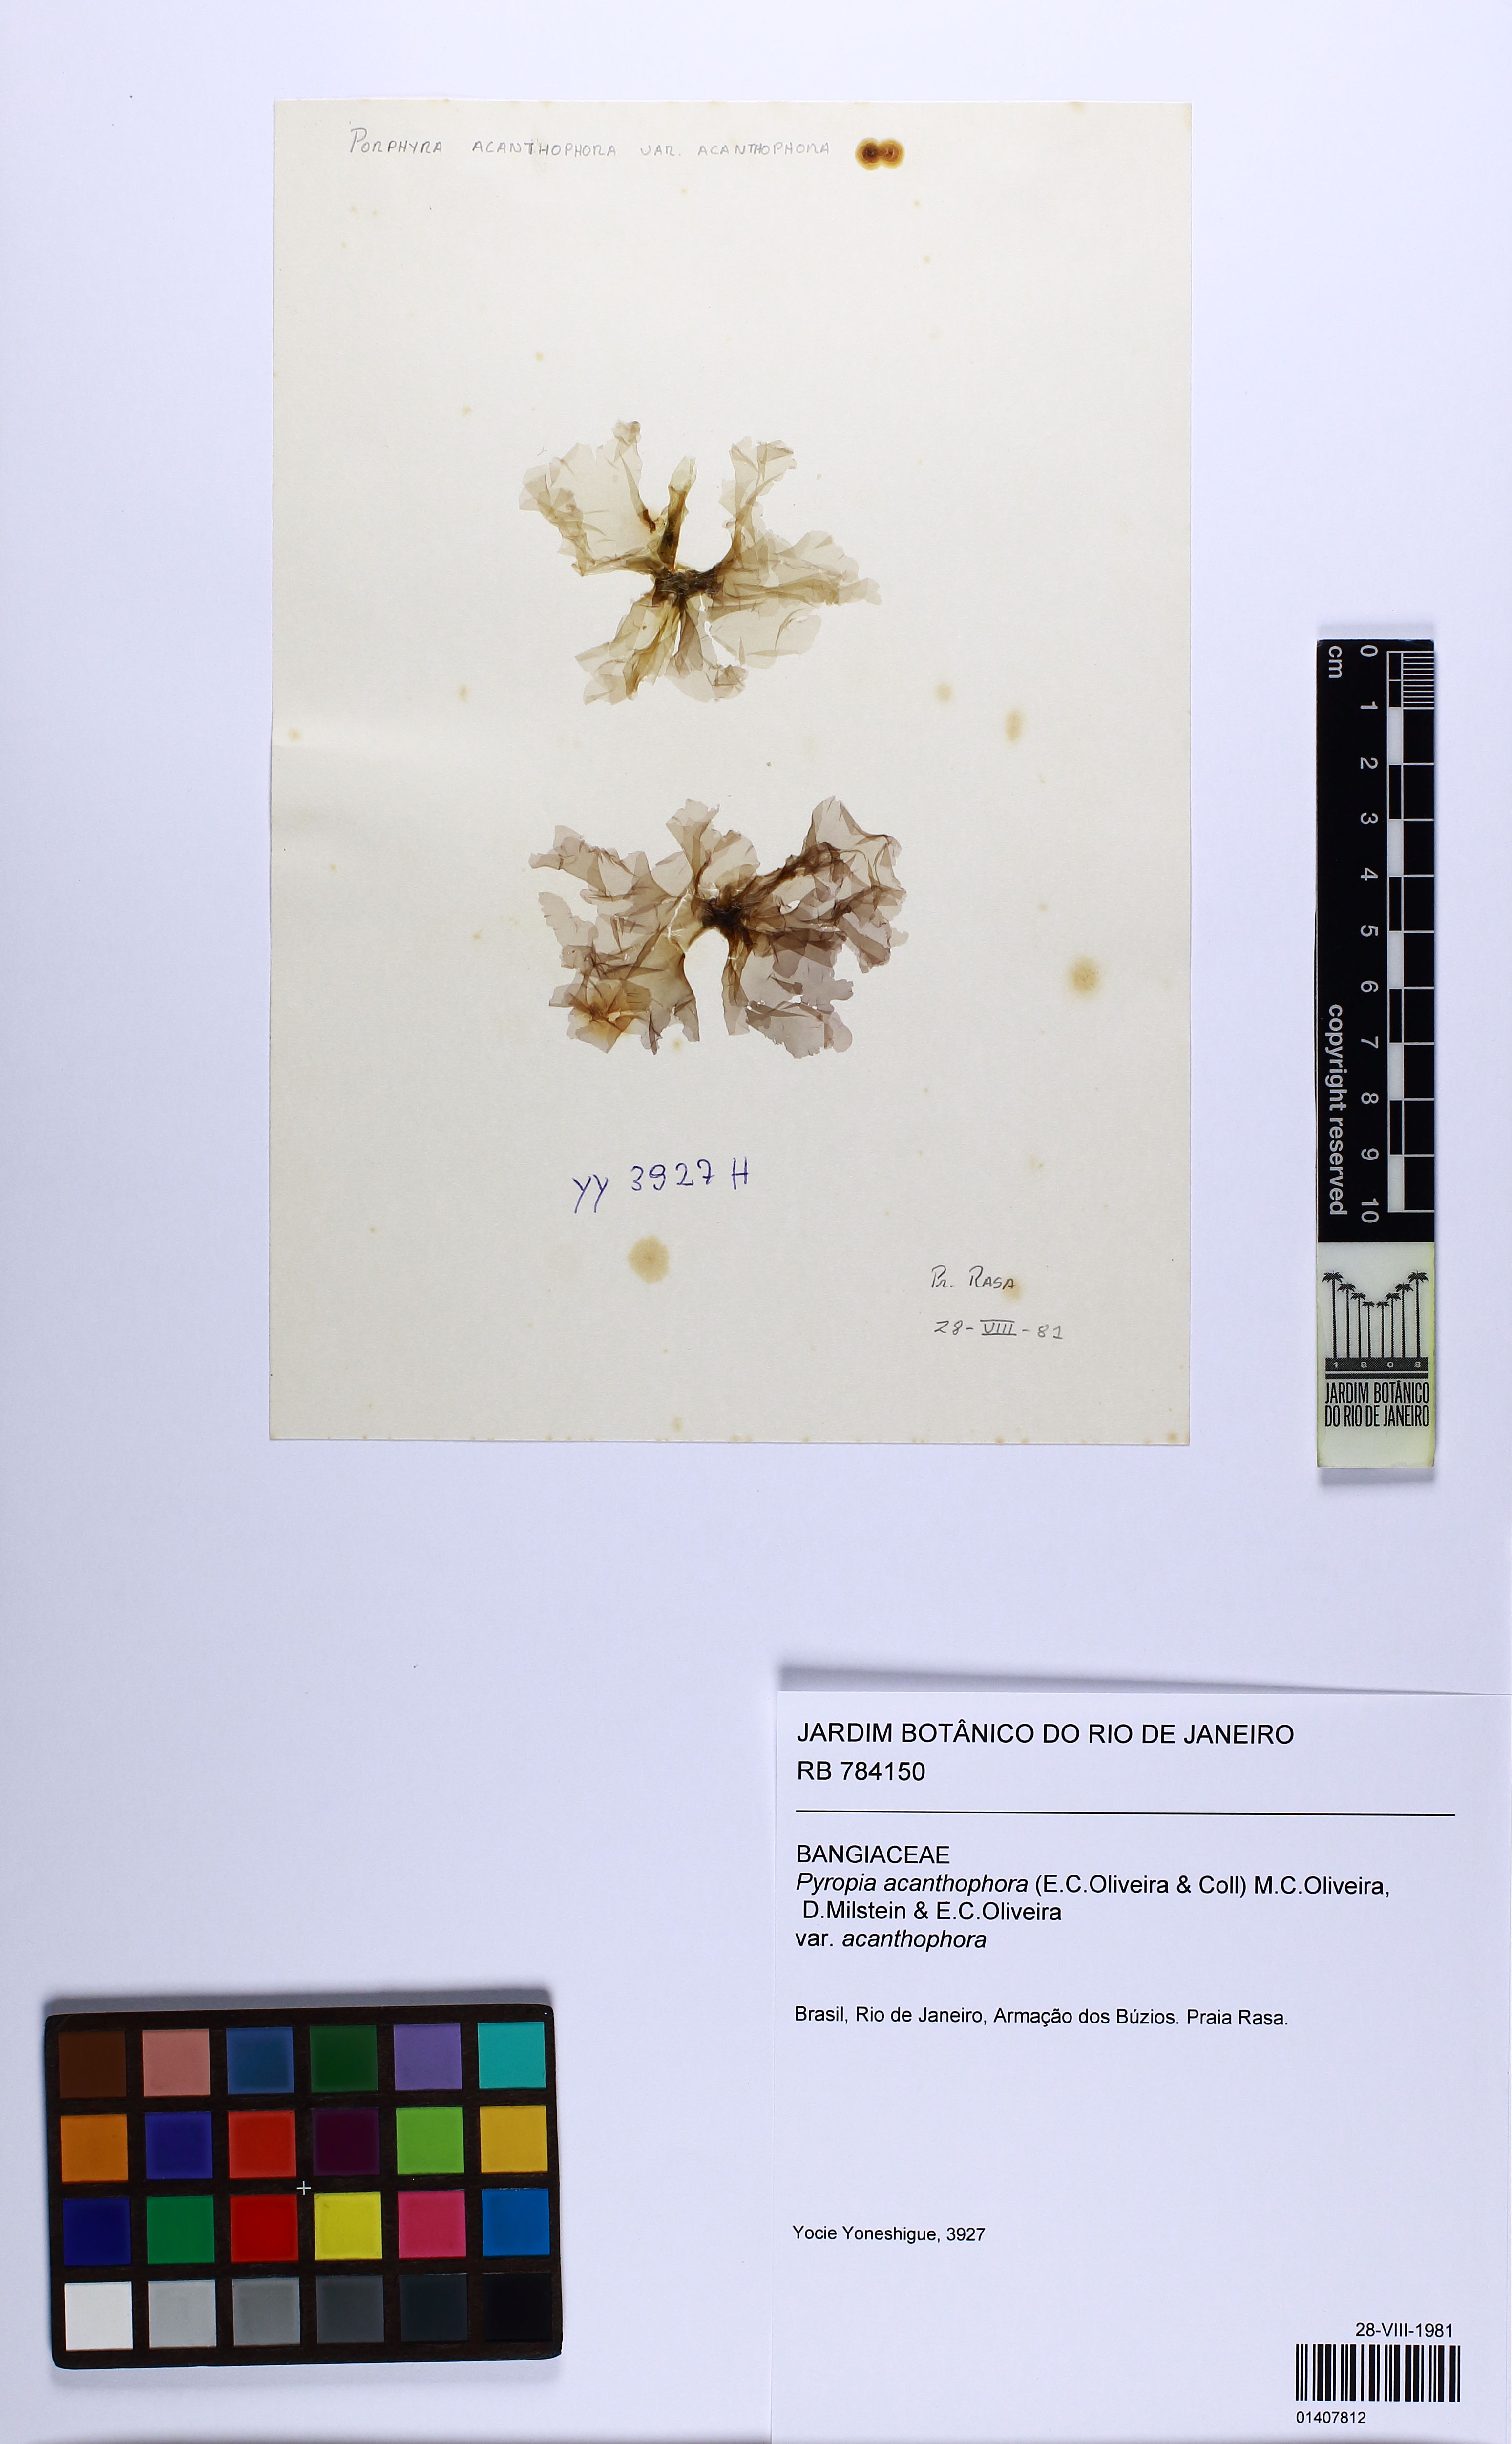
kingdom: Plantae
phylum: Rhodophyta
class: Bangiophyceae
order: Bangiales
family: Bangiaceae
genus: Pyropia
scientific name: Pyropia acanthophora
